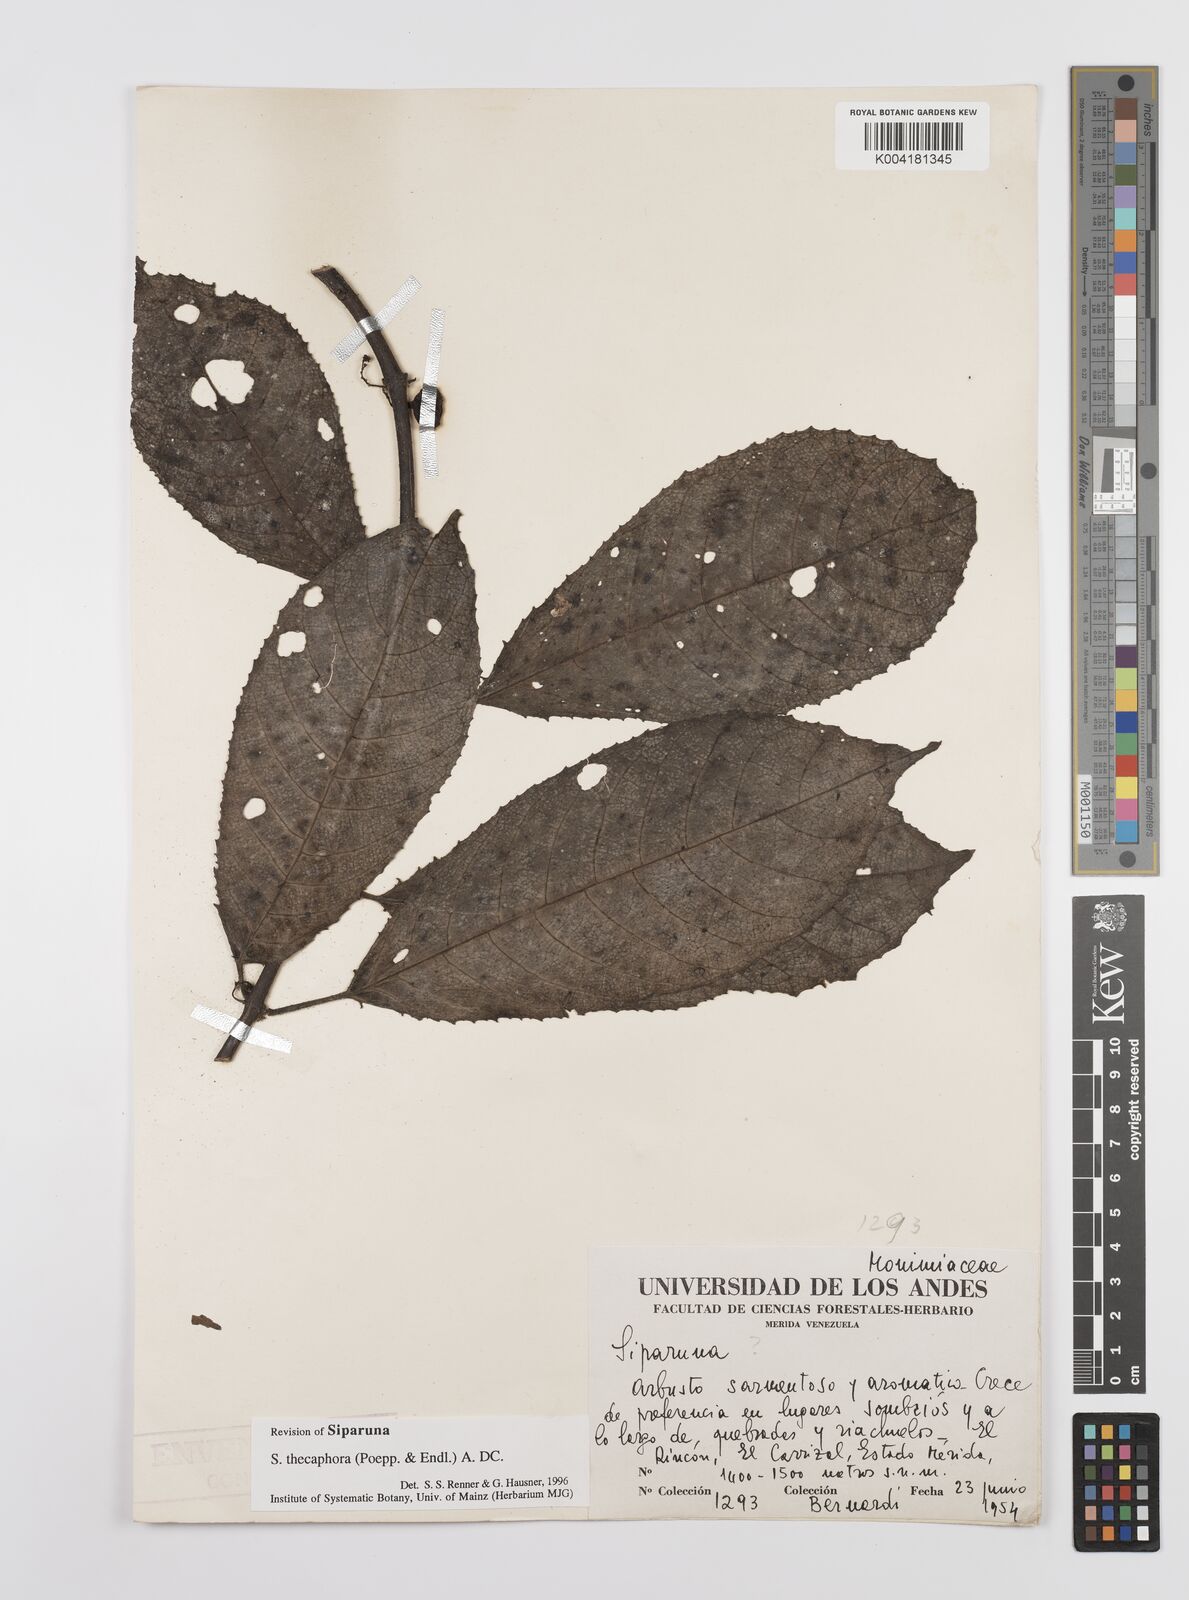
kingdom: Plantae
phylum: Tracheophyta
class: Magnoliopsida
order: Laurales
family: Siparunaceae
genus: Siparuna
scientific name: Siparuna thecaphora
